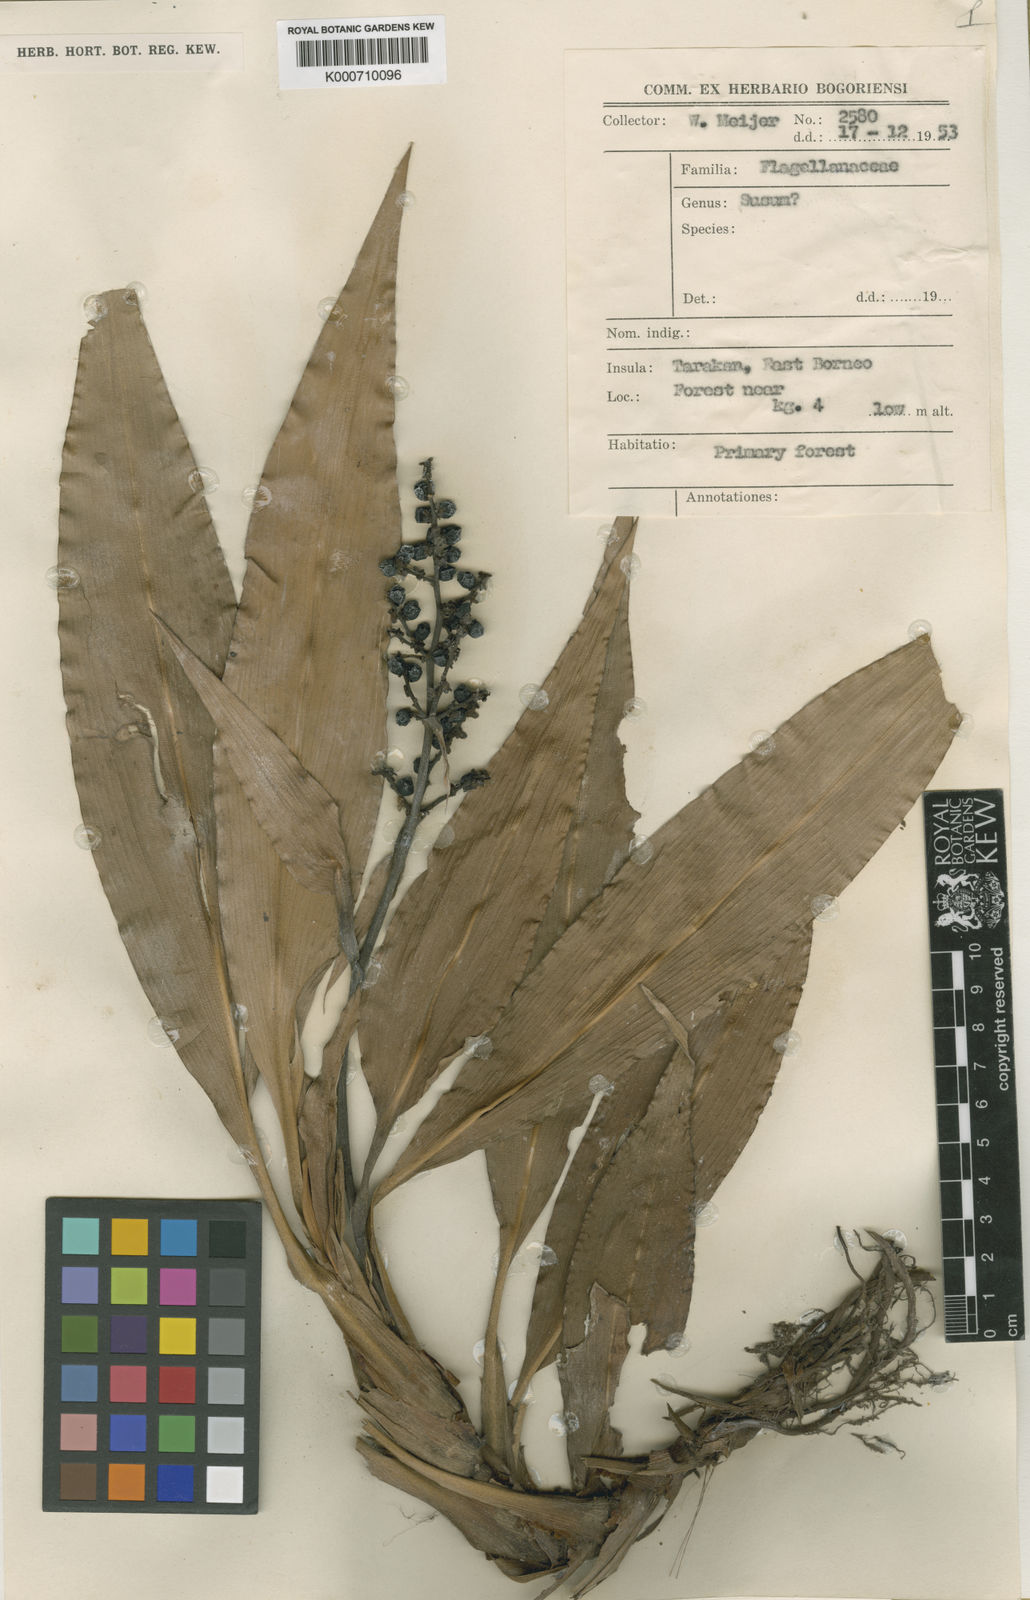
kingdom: Plantae
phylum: Tracheophyta
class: Liliopsida
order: Commelinales
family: Hanguanaceae
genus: Hanguana
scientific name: Hanguana malayana
